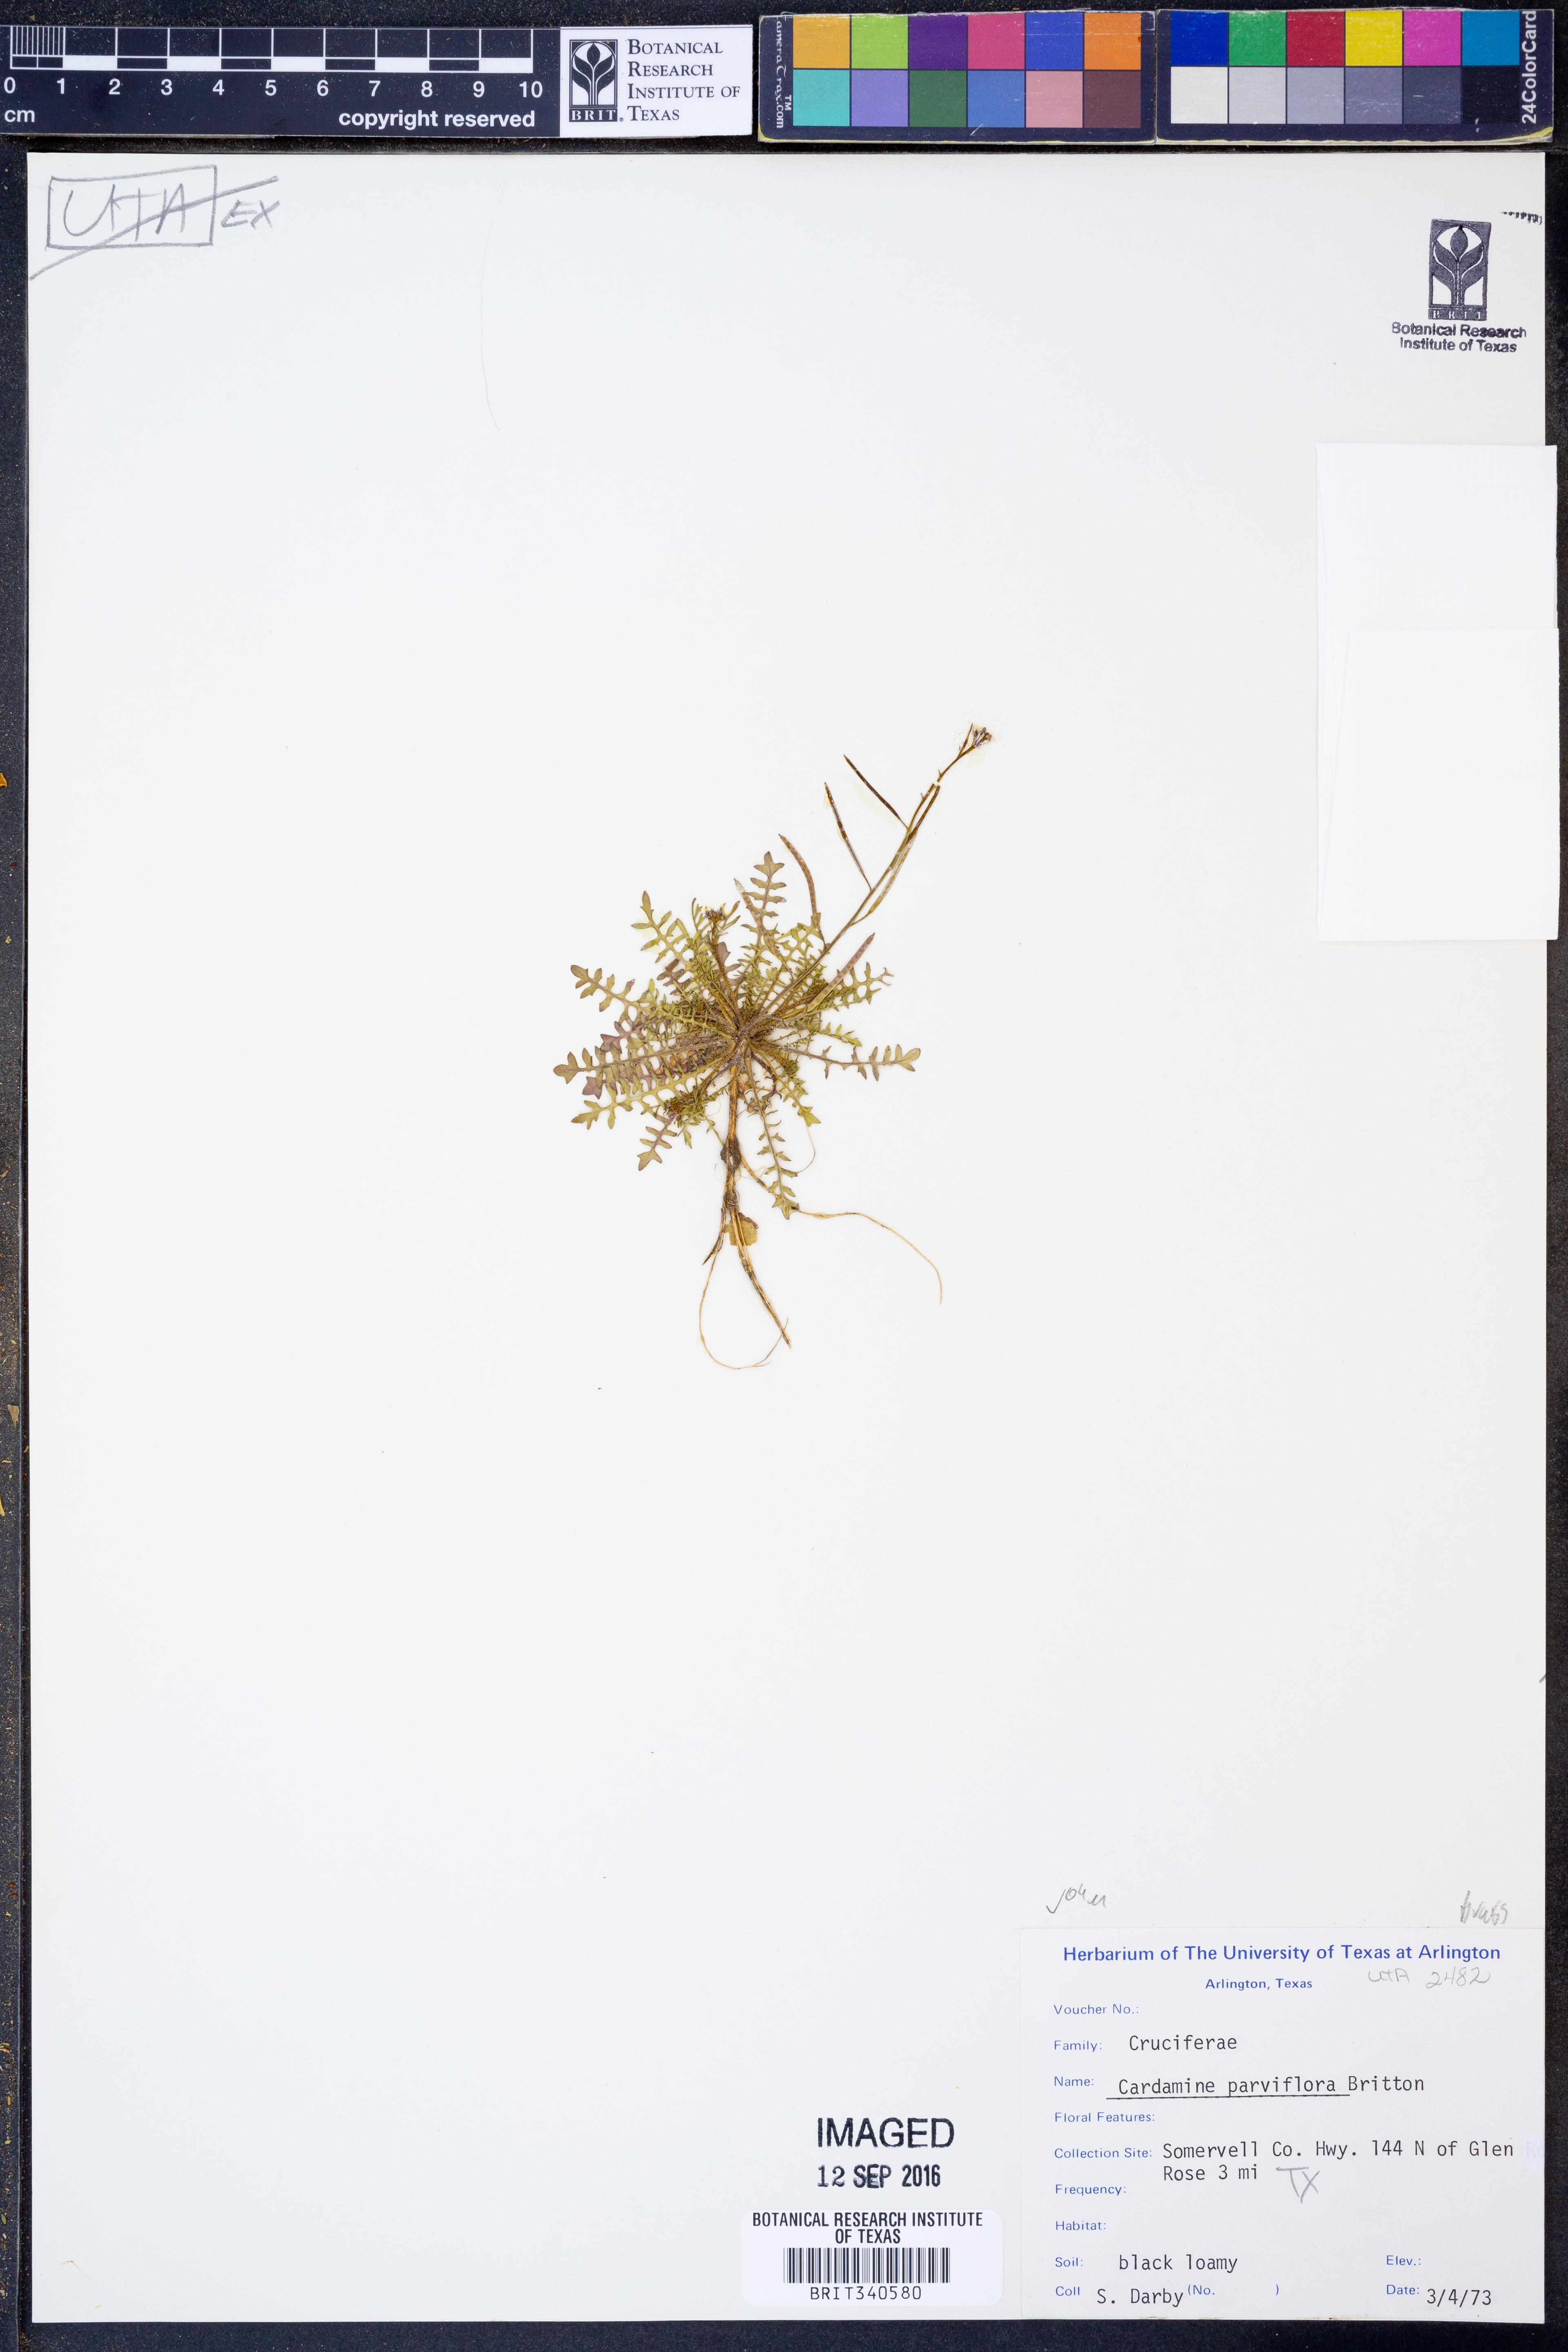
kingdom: Plantae
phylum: Tracheophyta
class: Magnoliopsida
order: Brassicales
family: Brassicaceae
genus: Cardamine
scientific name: Cardamine parviflora
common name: Sand bittercress
